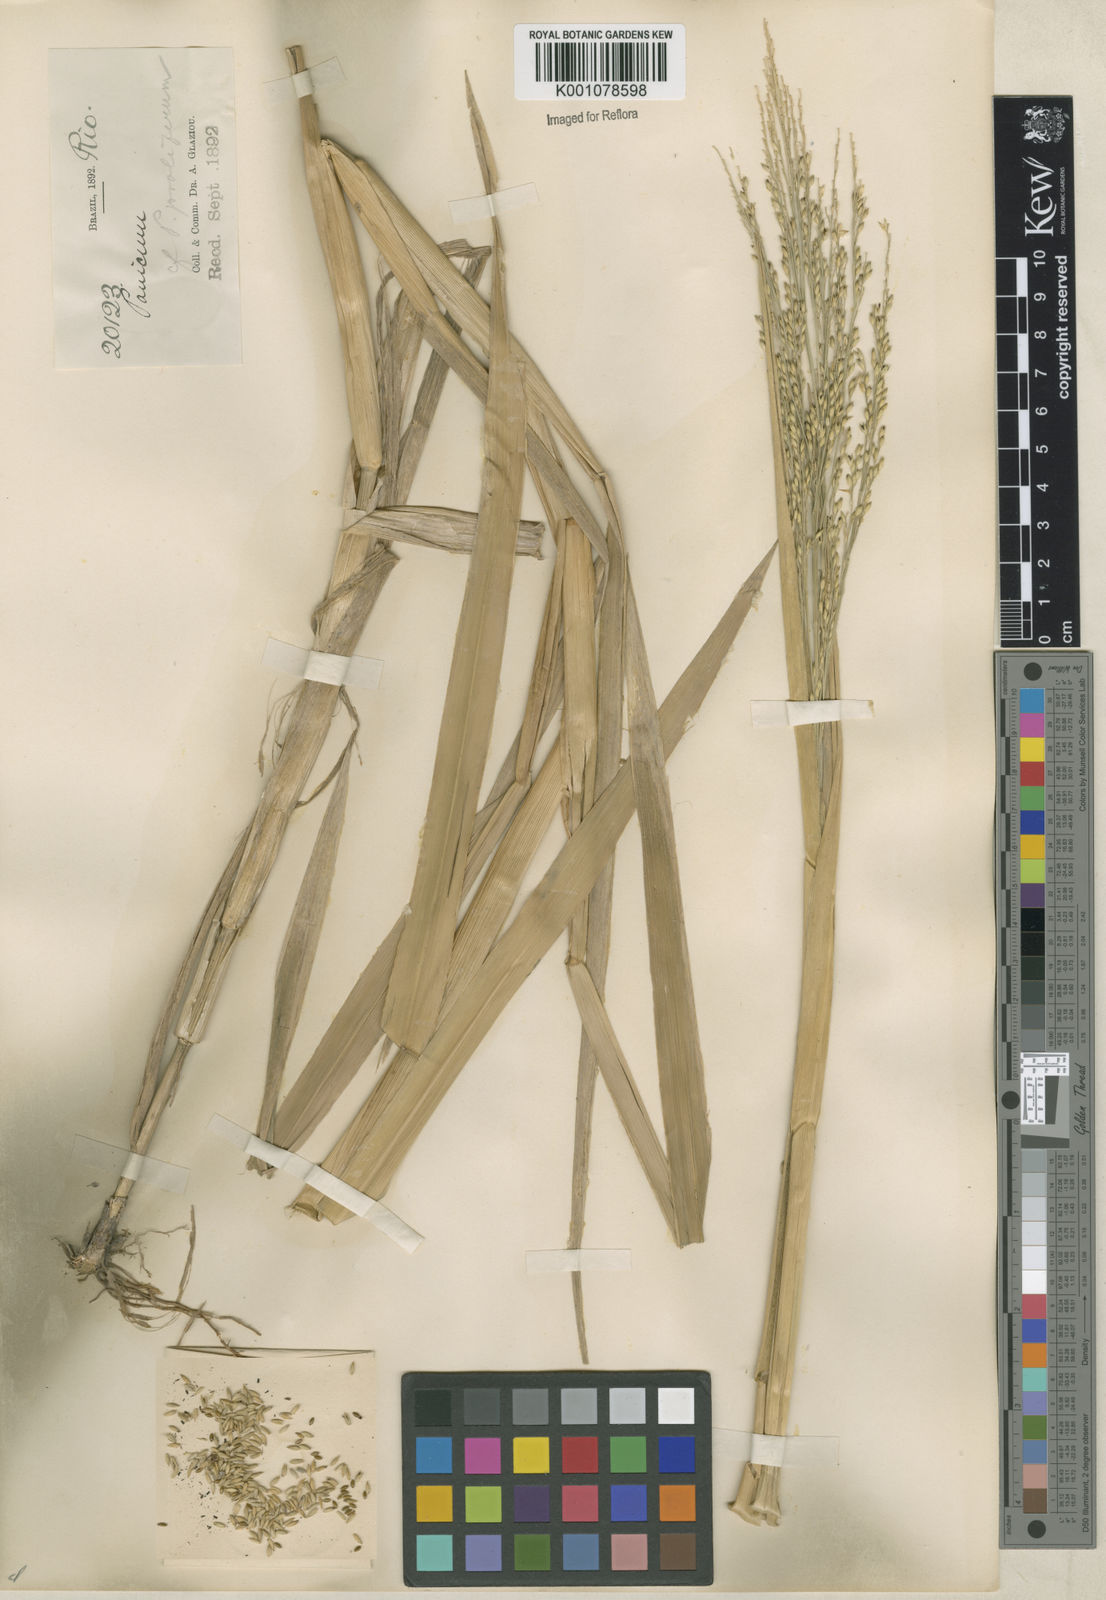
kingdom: Plantae
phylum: Tracheophyta
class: Liliopsida
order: Poales
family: Poaceae
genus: Panicum
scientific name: Panicum dichotomiflorum
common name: Autumn millet
